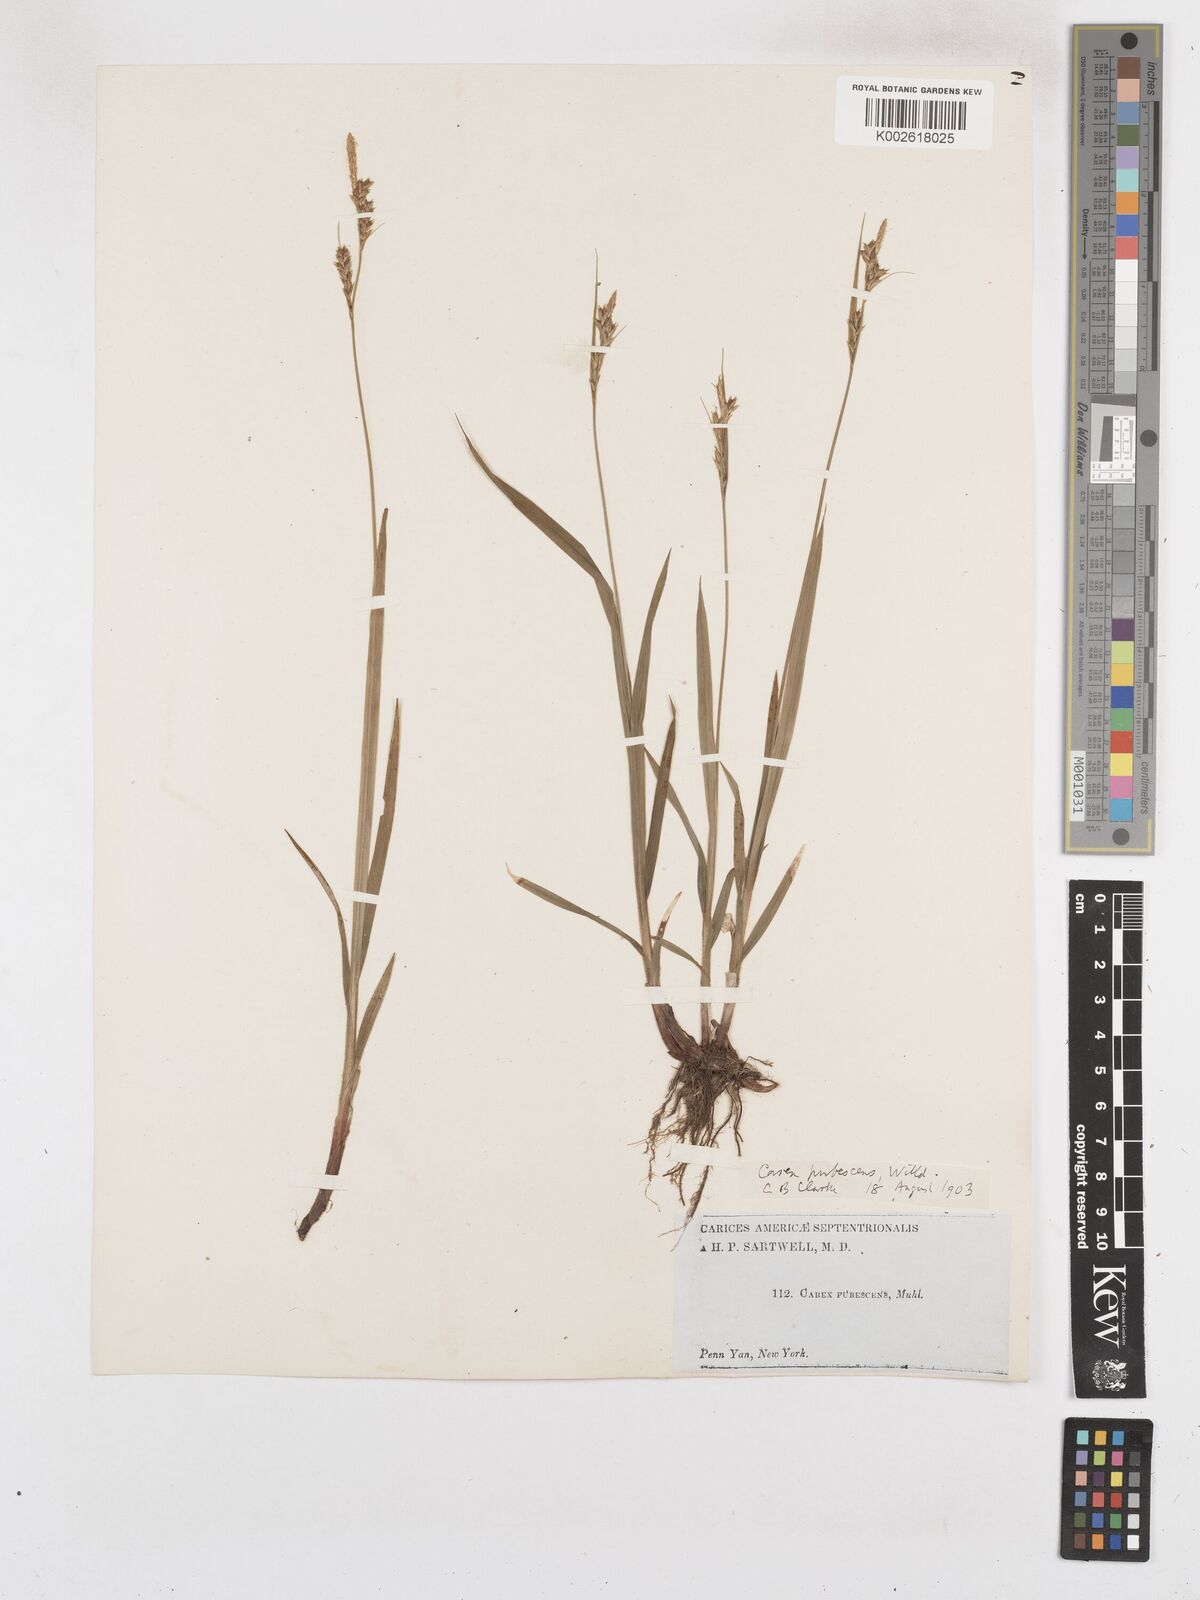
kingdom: Plantae
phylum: Tracheophyta
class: Liliopsida
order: Poales
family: Cyperaceae
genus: Carex
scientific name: Carex hirtifolia
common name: Hairy sedge
